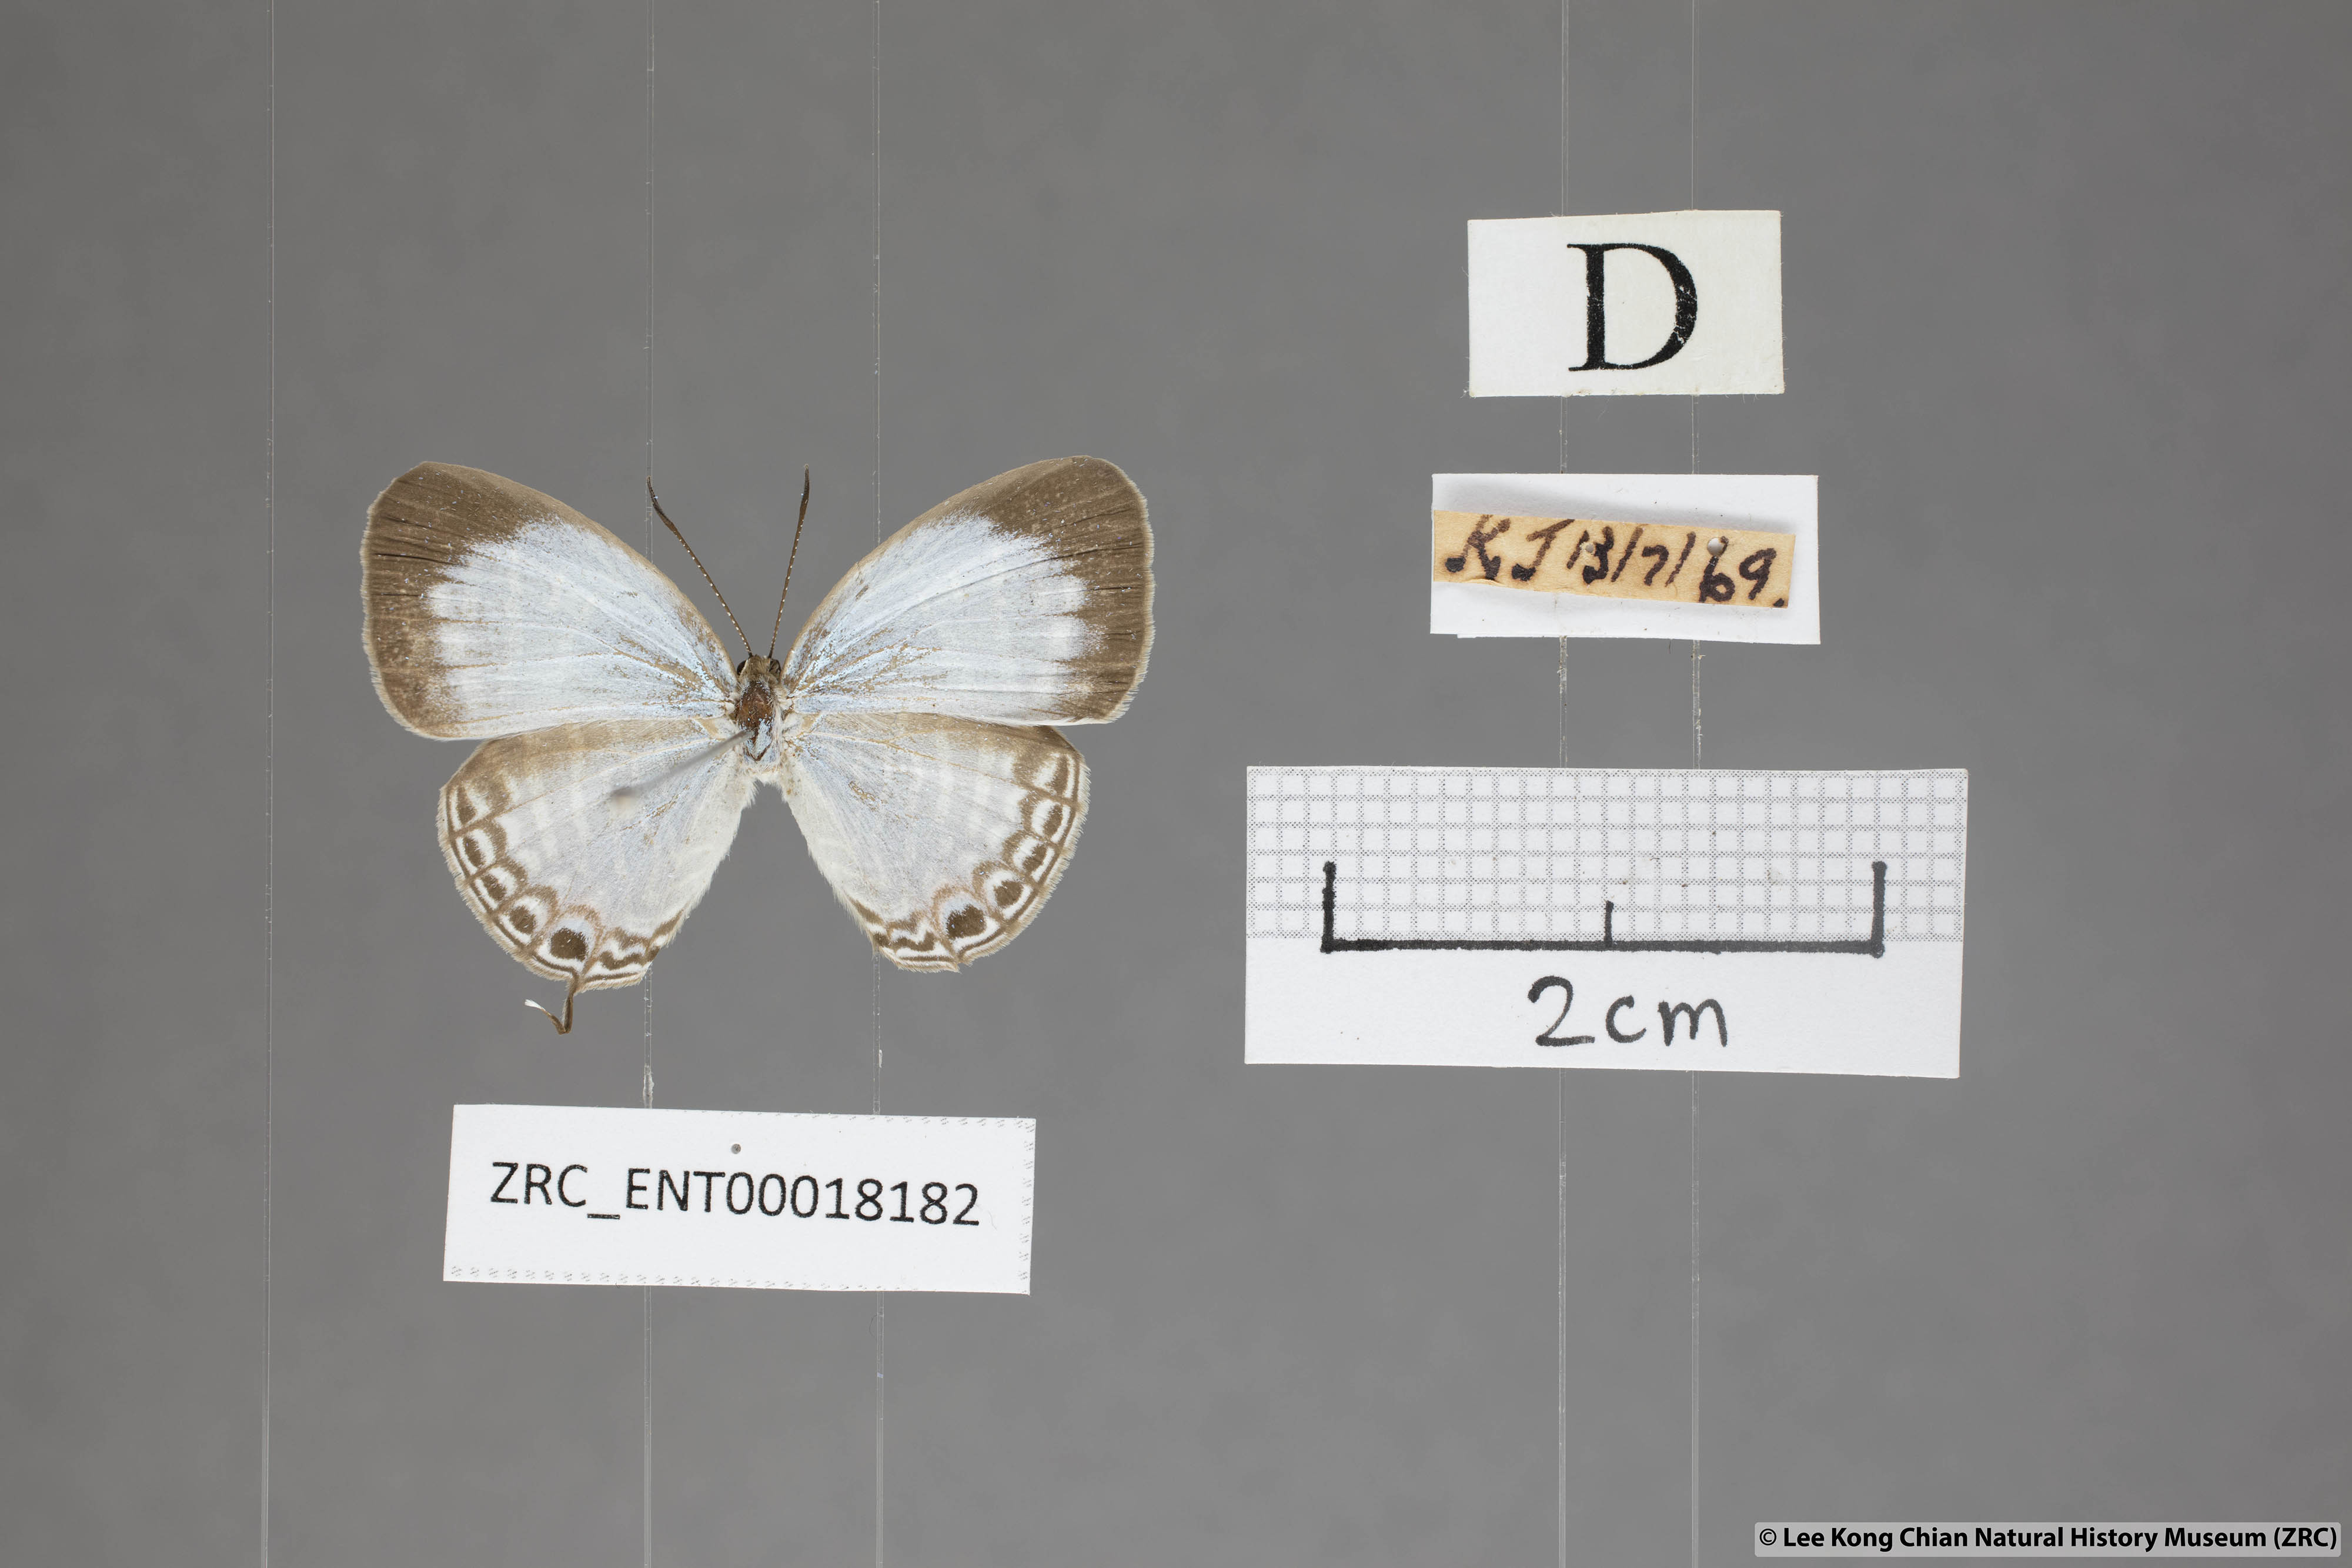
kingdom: Animalia
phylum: Arthropoda
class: Insecta
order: Lepidoptera
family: Lycaenidae
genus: Jamides
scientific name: Jamides pura
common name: White cerulean
